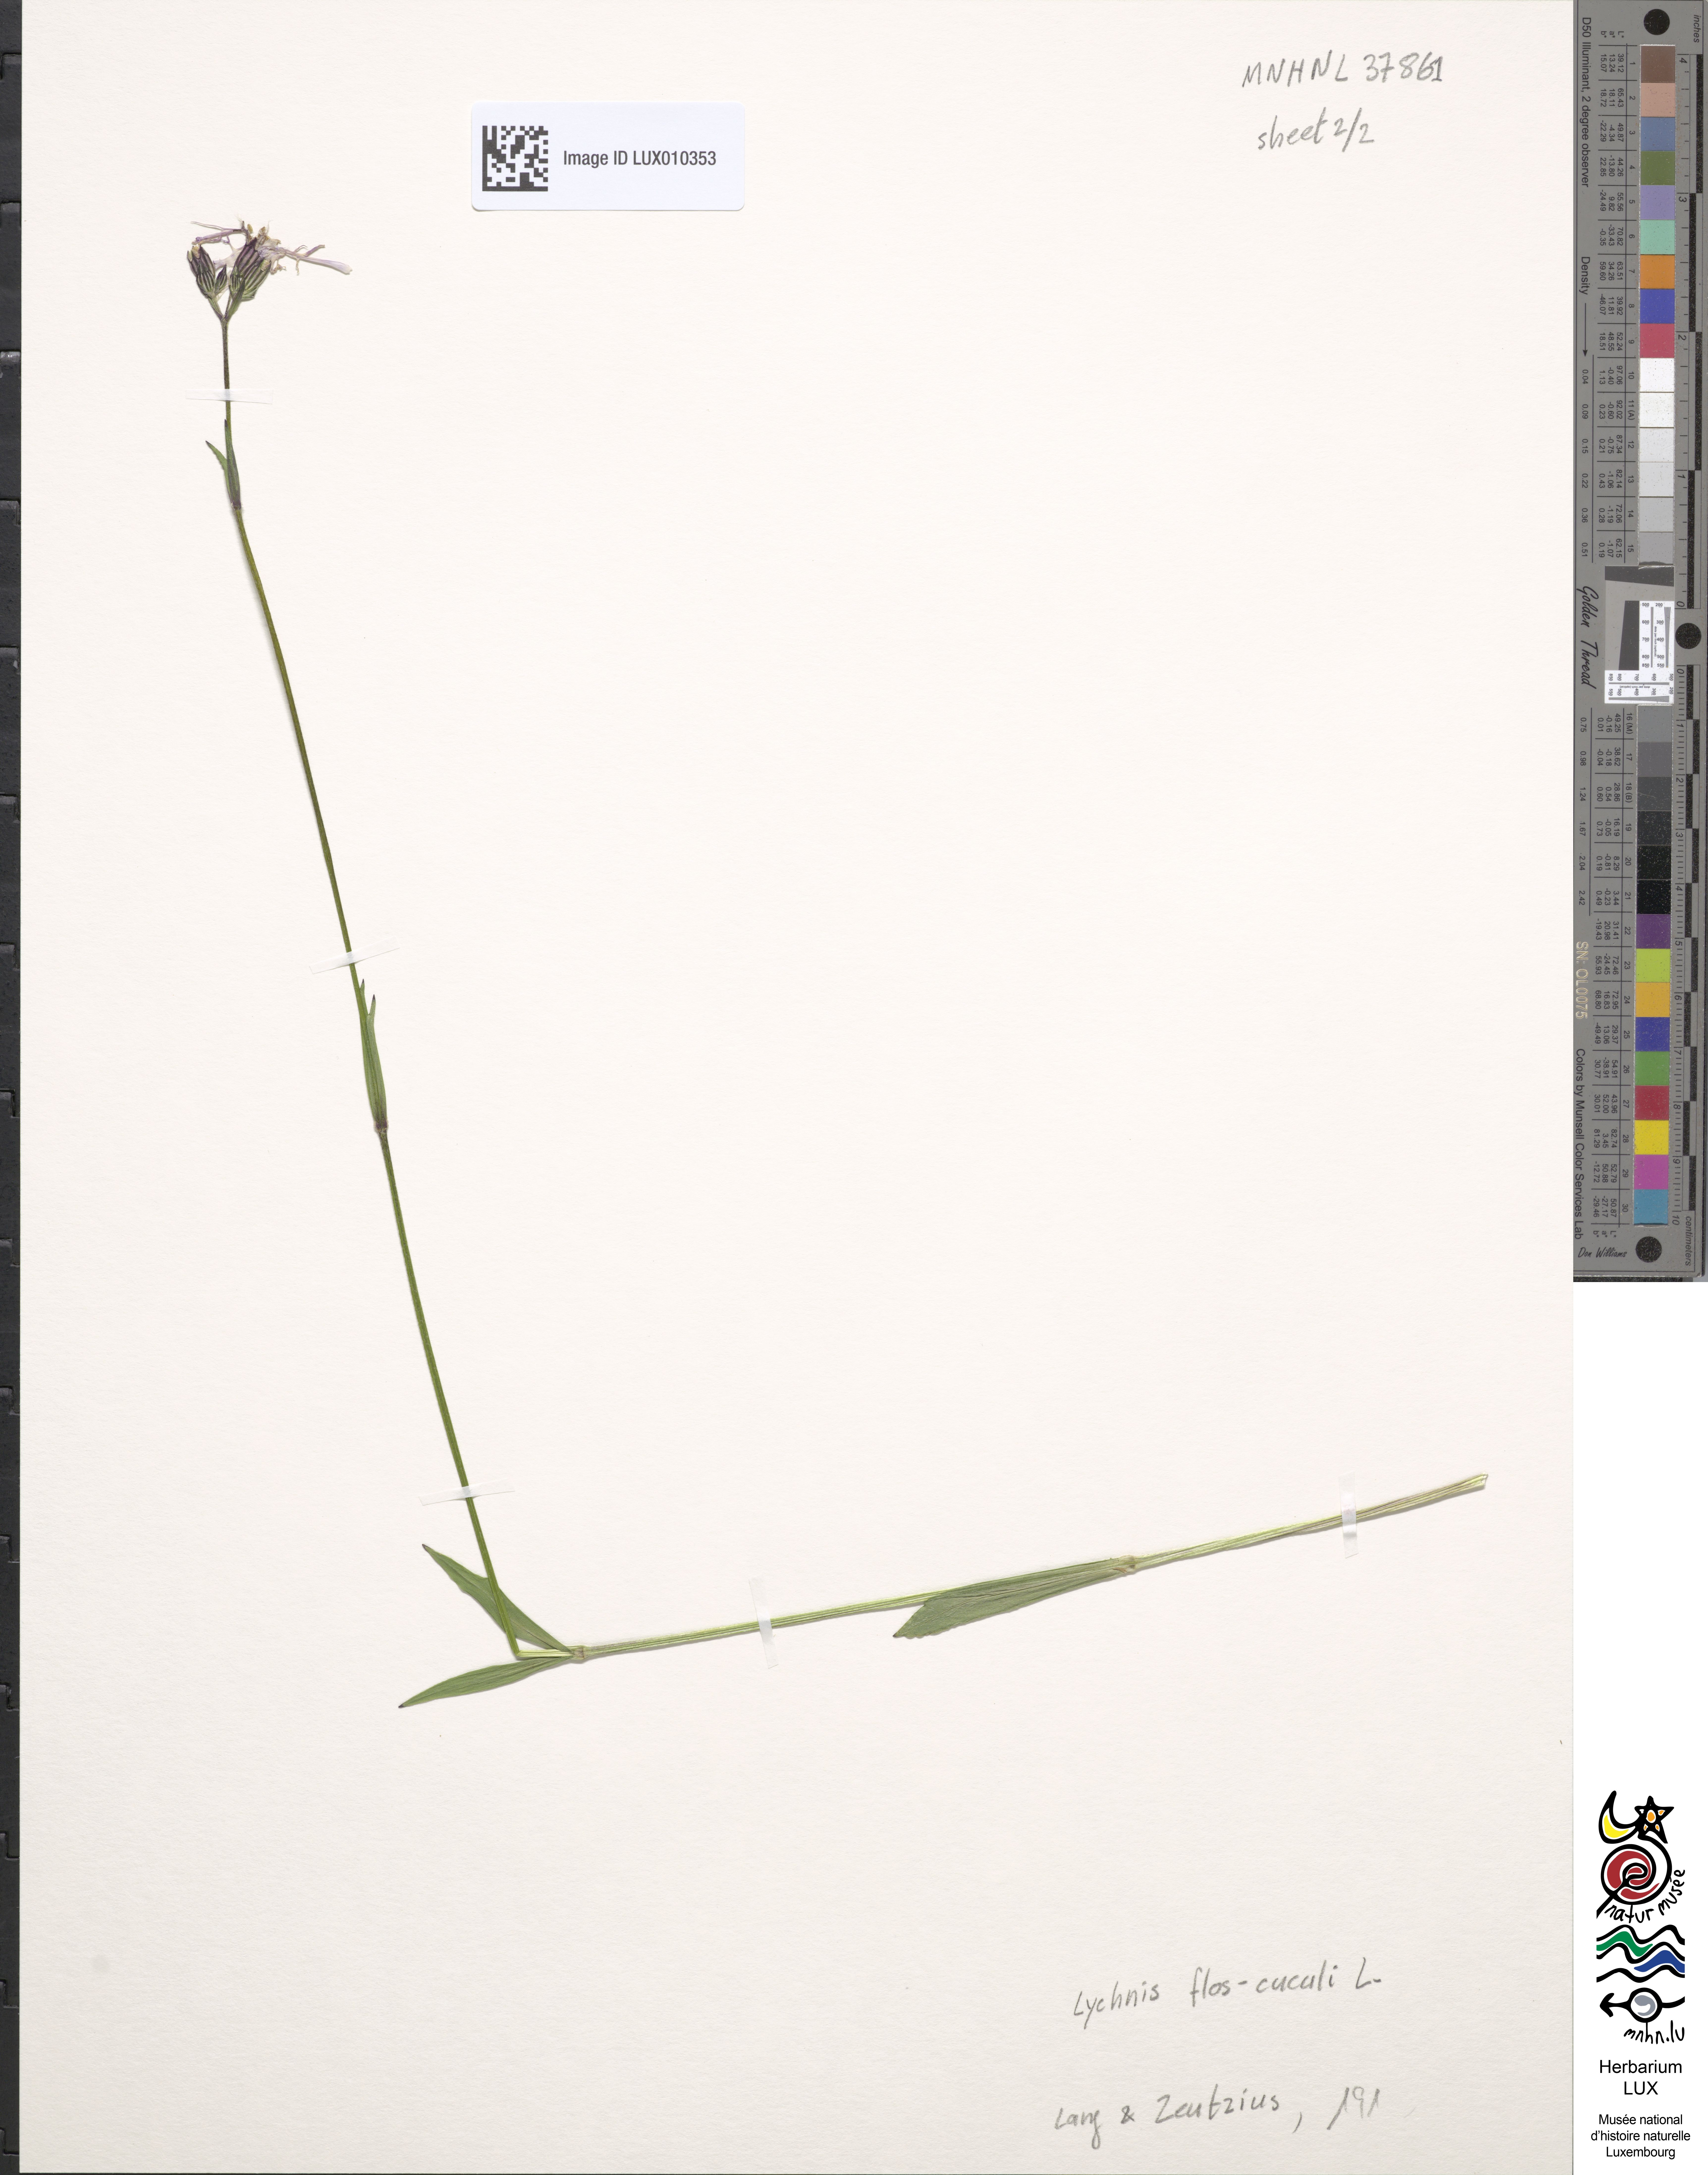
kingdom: Plantae
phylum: Tracheophyta
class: Magnoliopsida
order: Caryophyllales
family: Caryophyllaceae
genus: Silene
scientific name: Silene flos-cuculi
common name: Ragged-robin
